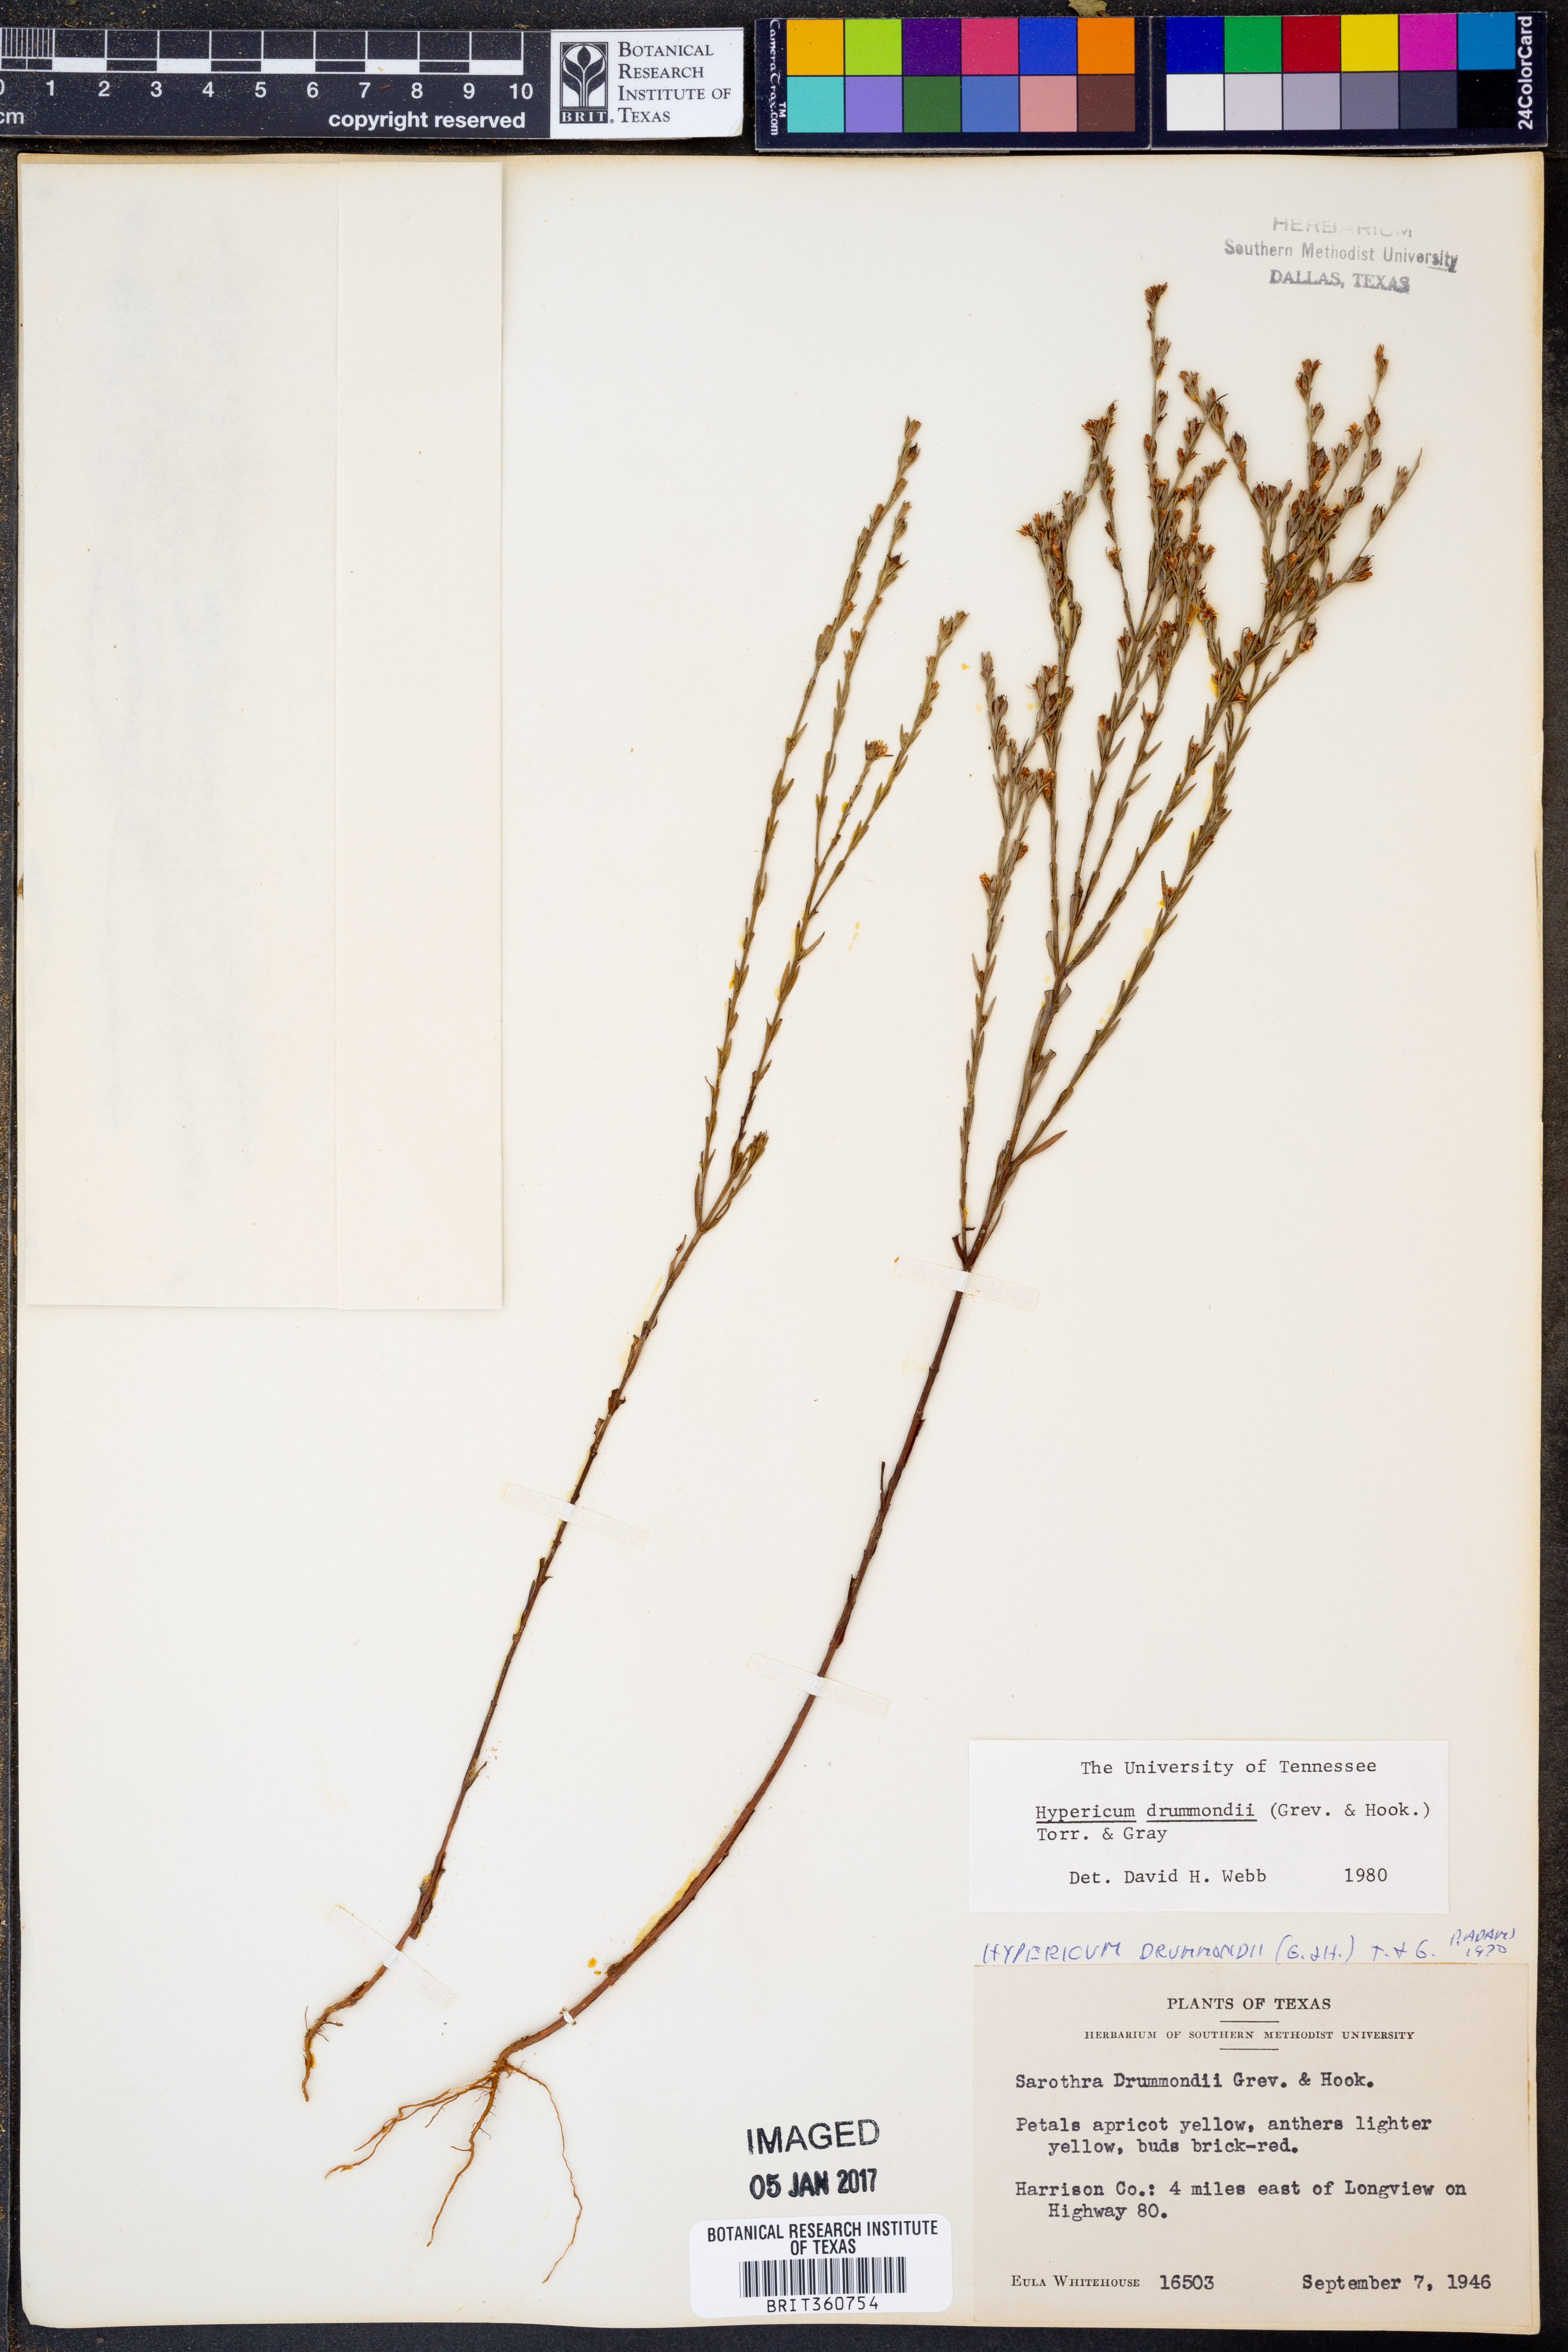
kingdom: Plantae
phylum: Tracheophyta
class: Magnoliopsida
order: Malpighiales
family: Hypericaceae
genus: Hypericum
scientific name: Hypericum drummondii
